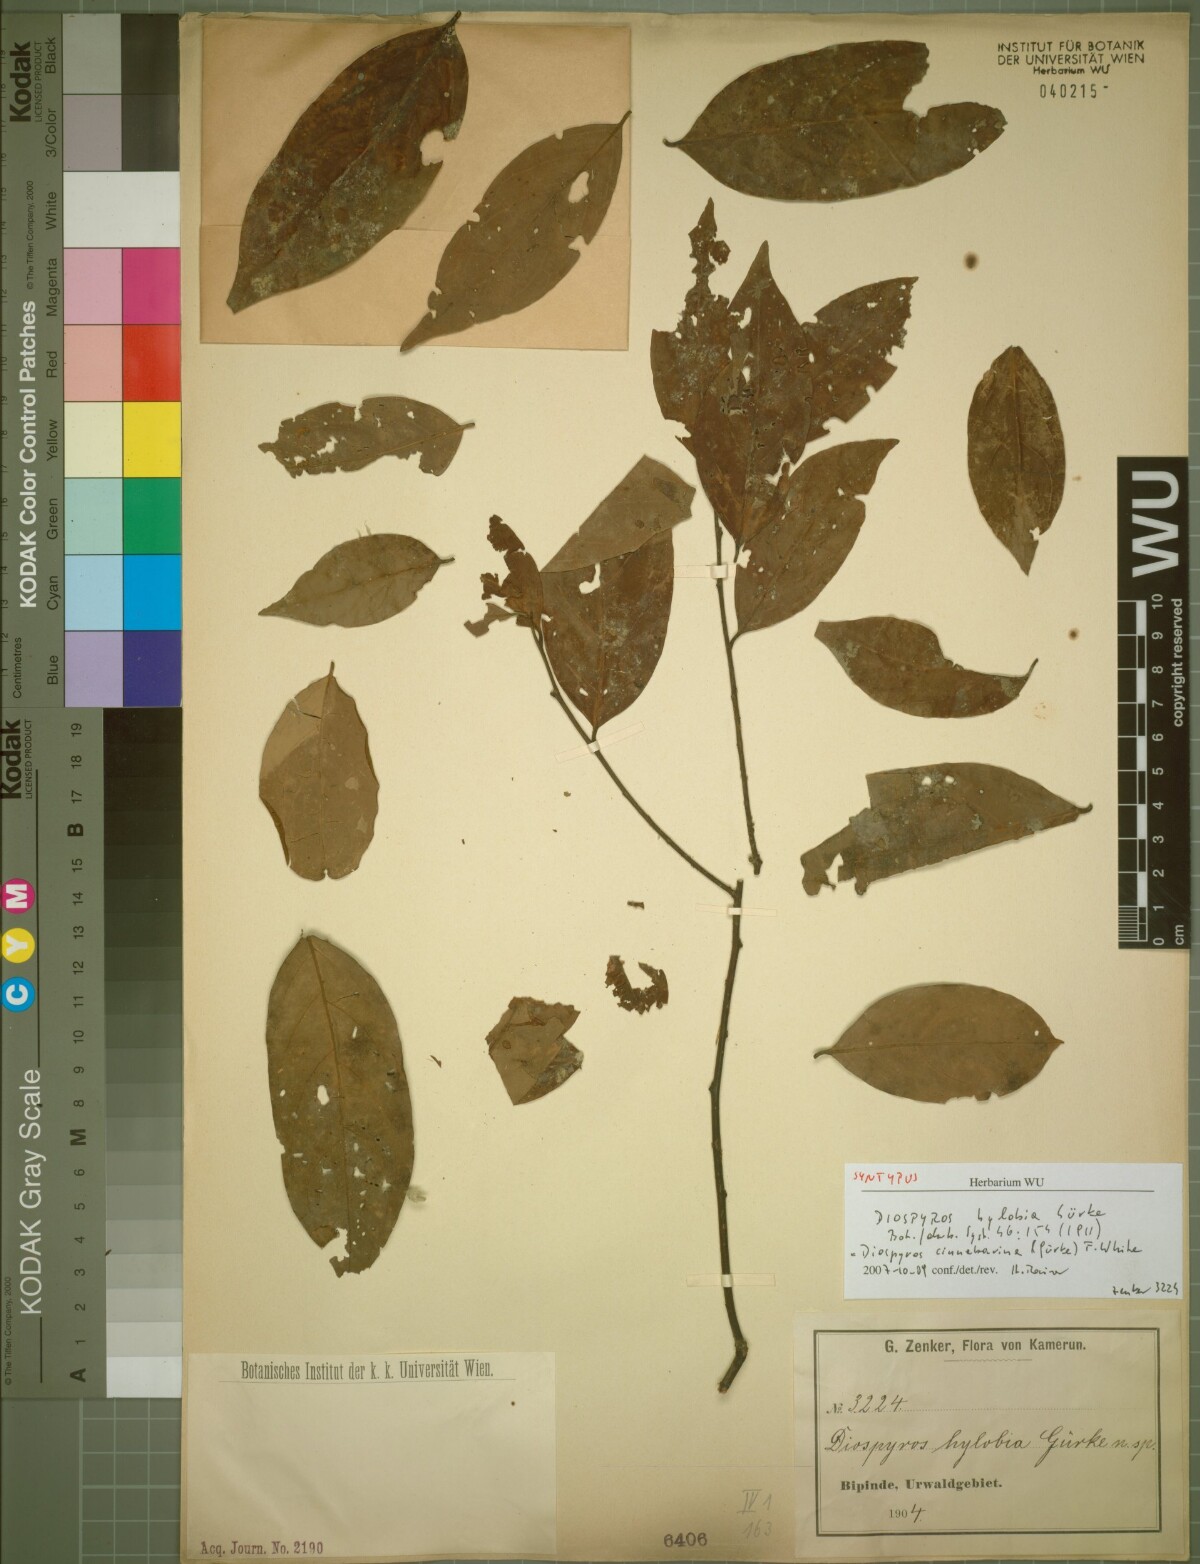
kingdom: Plantae
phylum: Tracheophyta
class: Magnoliopsida
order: Ericales
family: Ebenaceae
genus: Diospyros
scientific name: Diospyros cinnabarina
